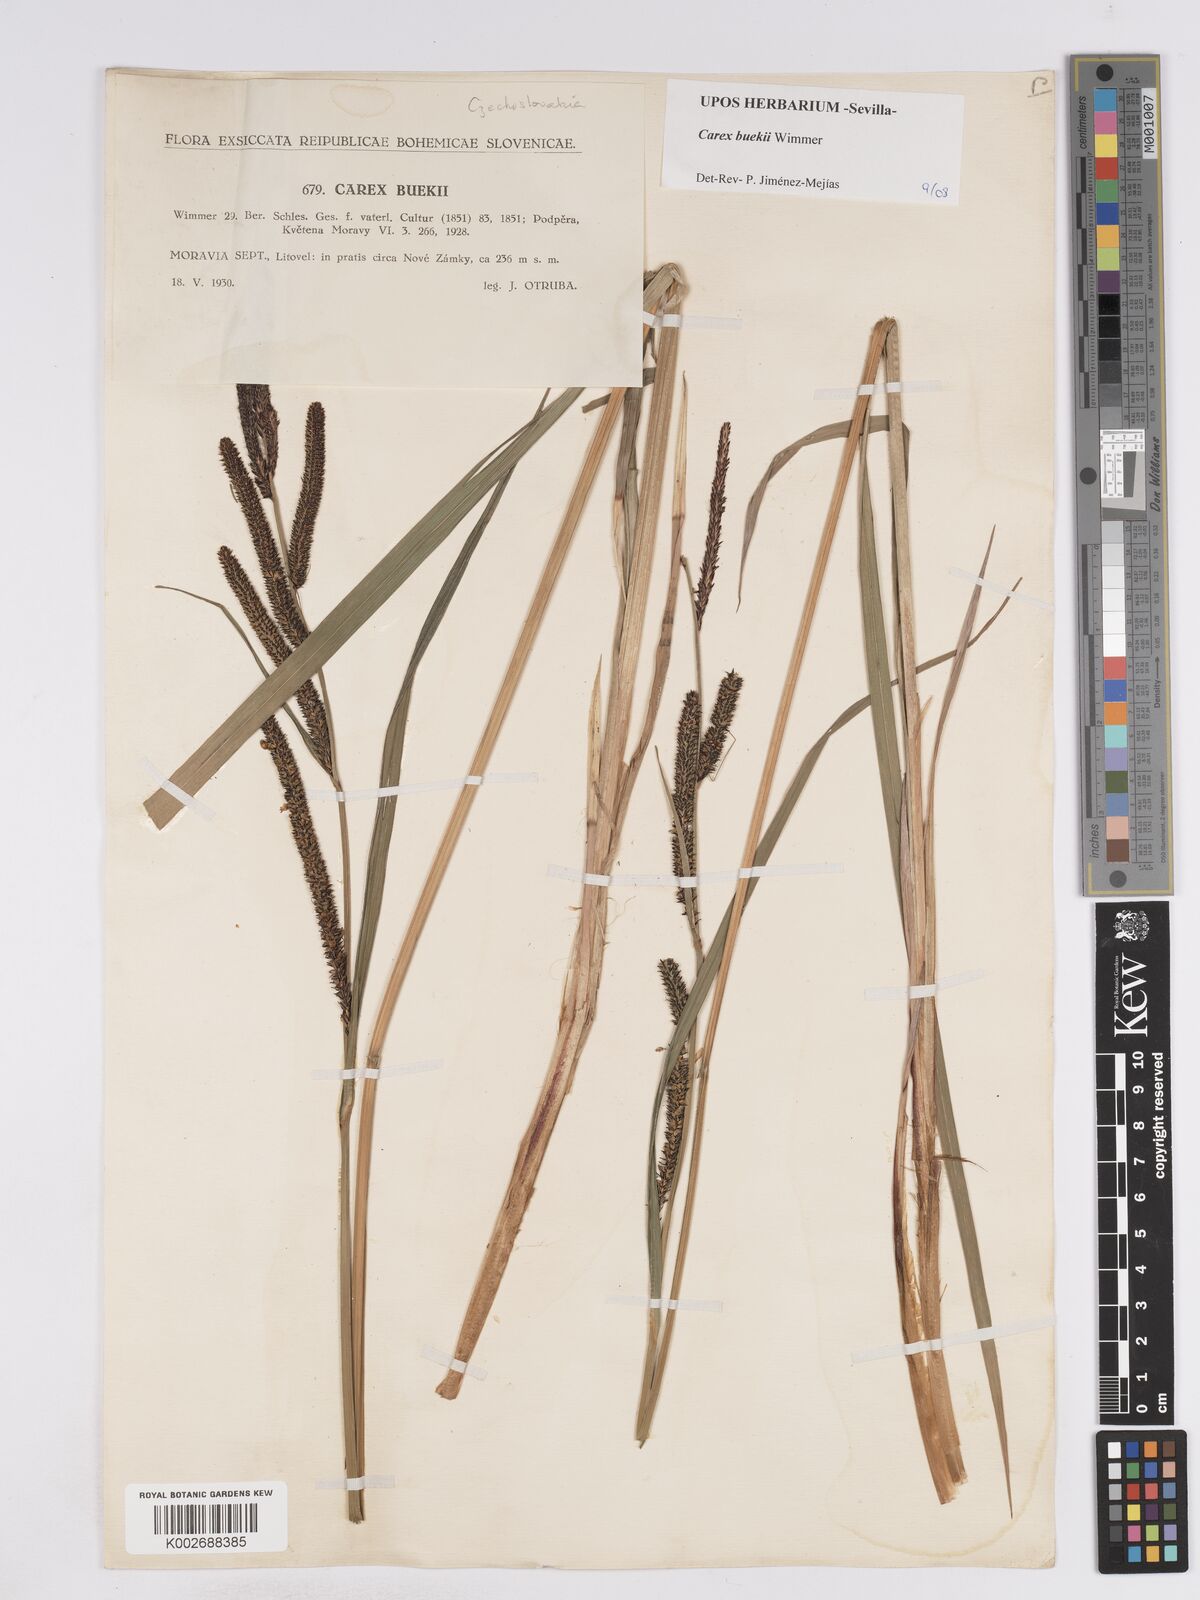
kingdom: Plantae
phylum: Tracheophyta
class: Liliopsida
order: Poales
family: Cyperaceae
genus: Carex
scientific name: Carex buekii
